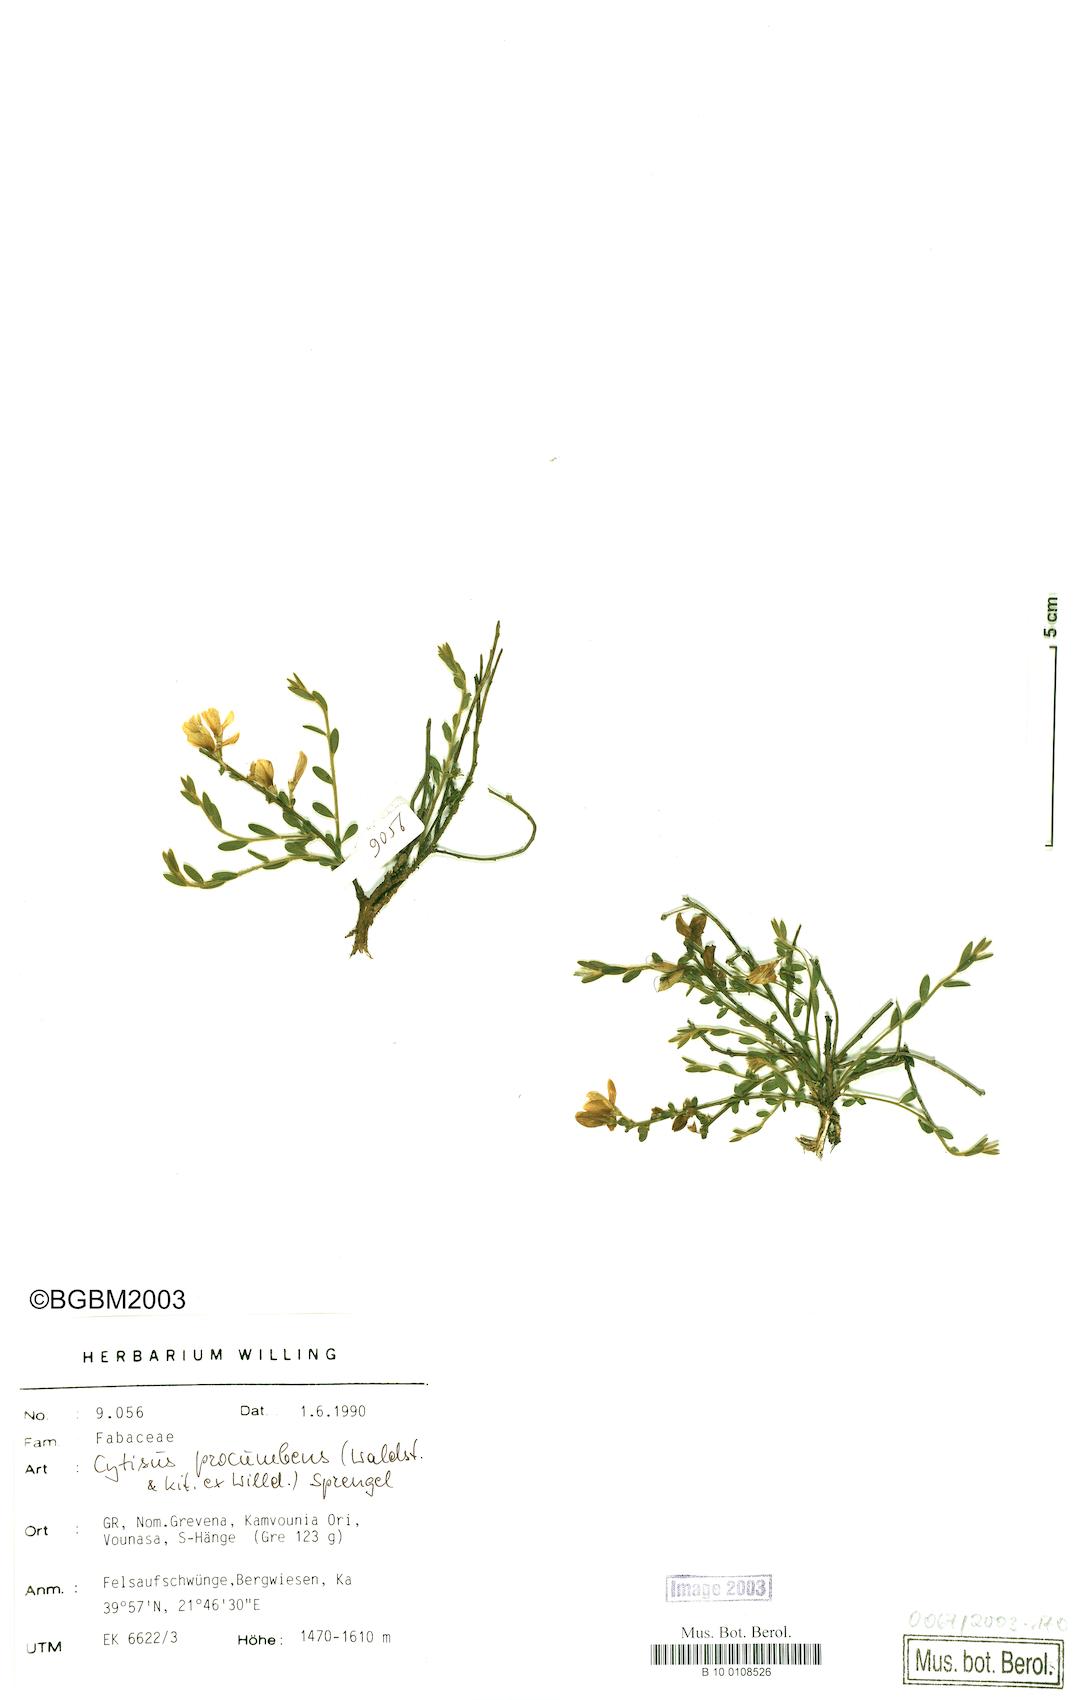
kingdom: Plantae
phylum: Tracheophyta
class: Magnoliopsida
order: Fabales
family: Fabaceae
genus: Cytisus
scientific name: Cytisus procumbens
